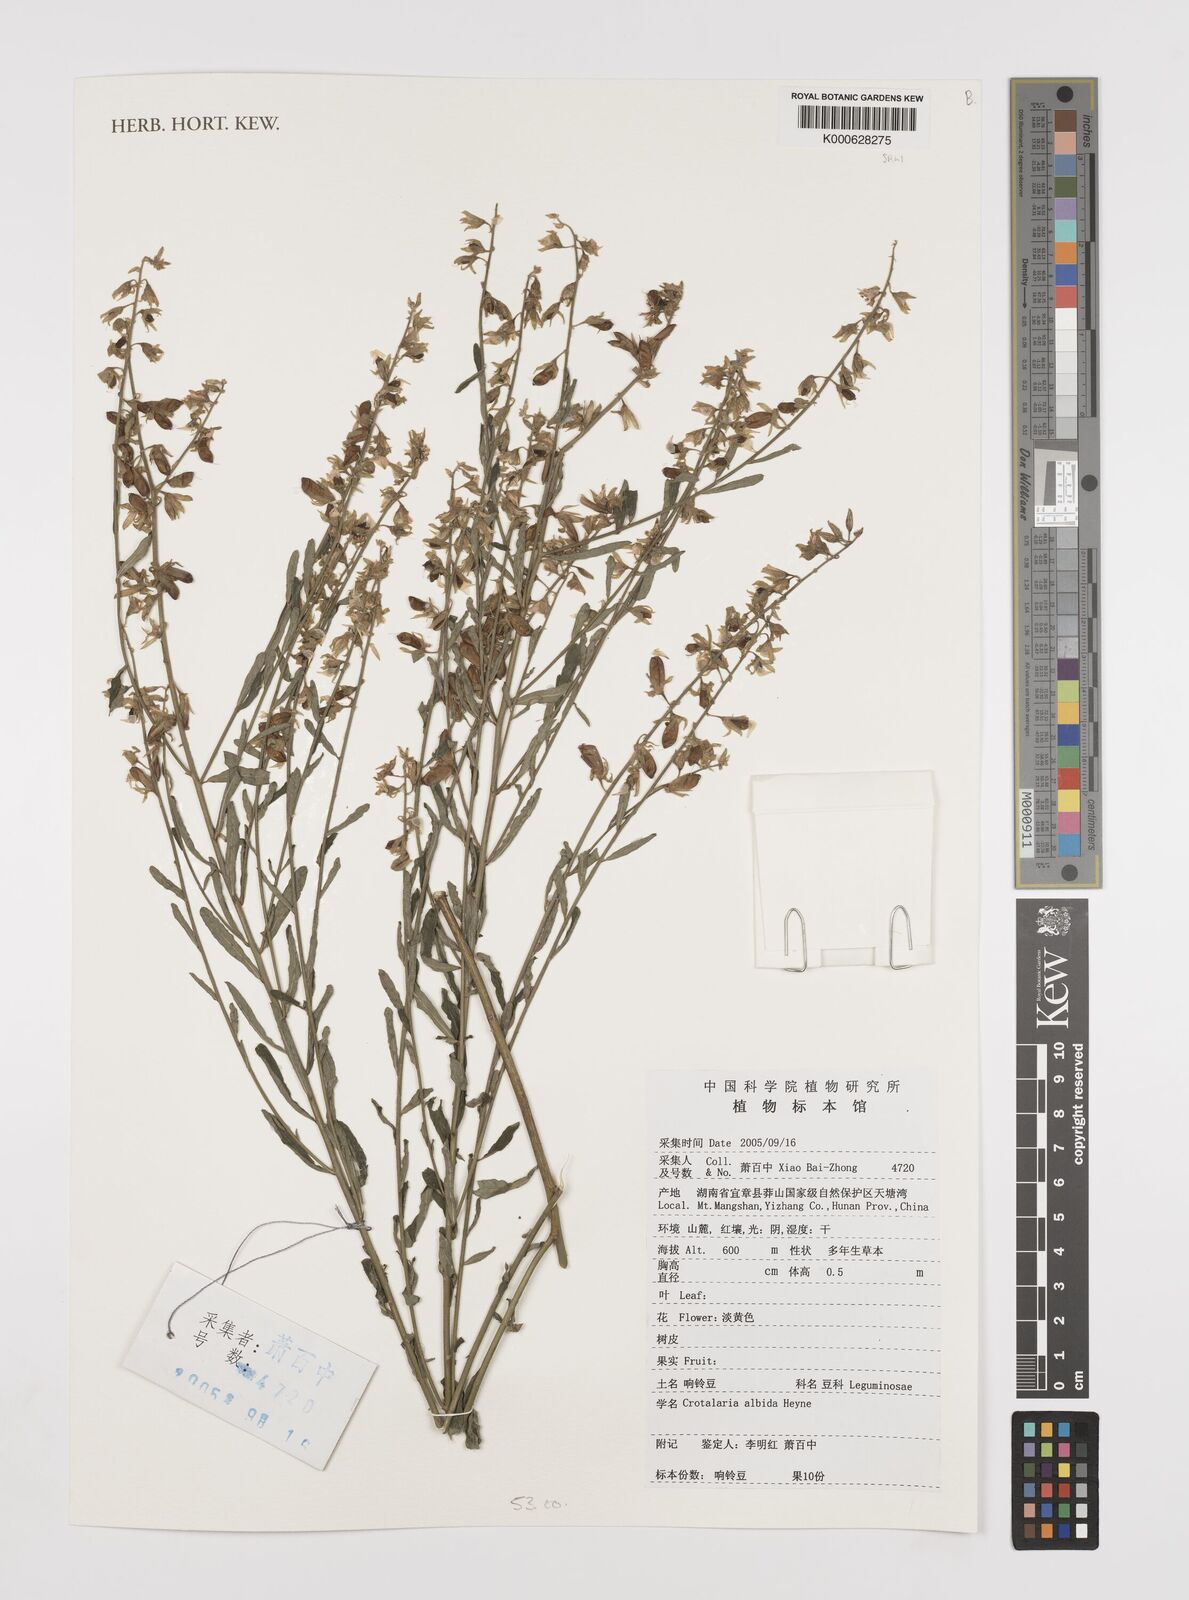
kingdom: Plantae
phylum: Tracheophyta
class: Magnoliopsida
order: Fabales
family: Fabaceae
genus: Crotalaria
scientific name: Crotalaria albida
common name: Taiwan crotalaria
